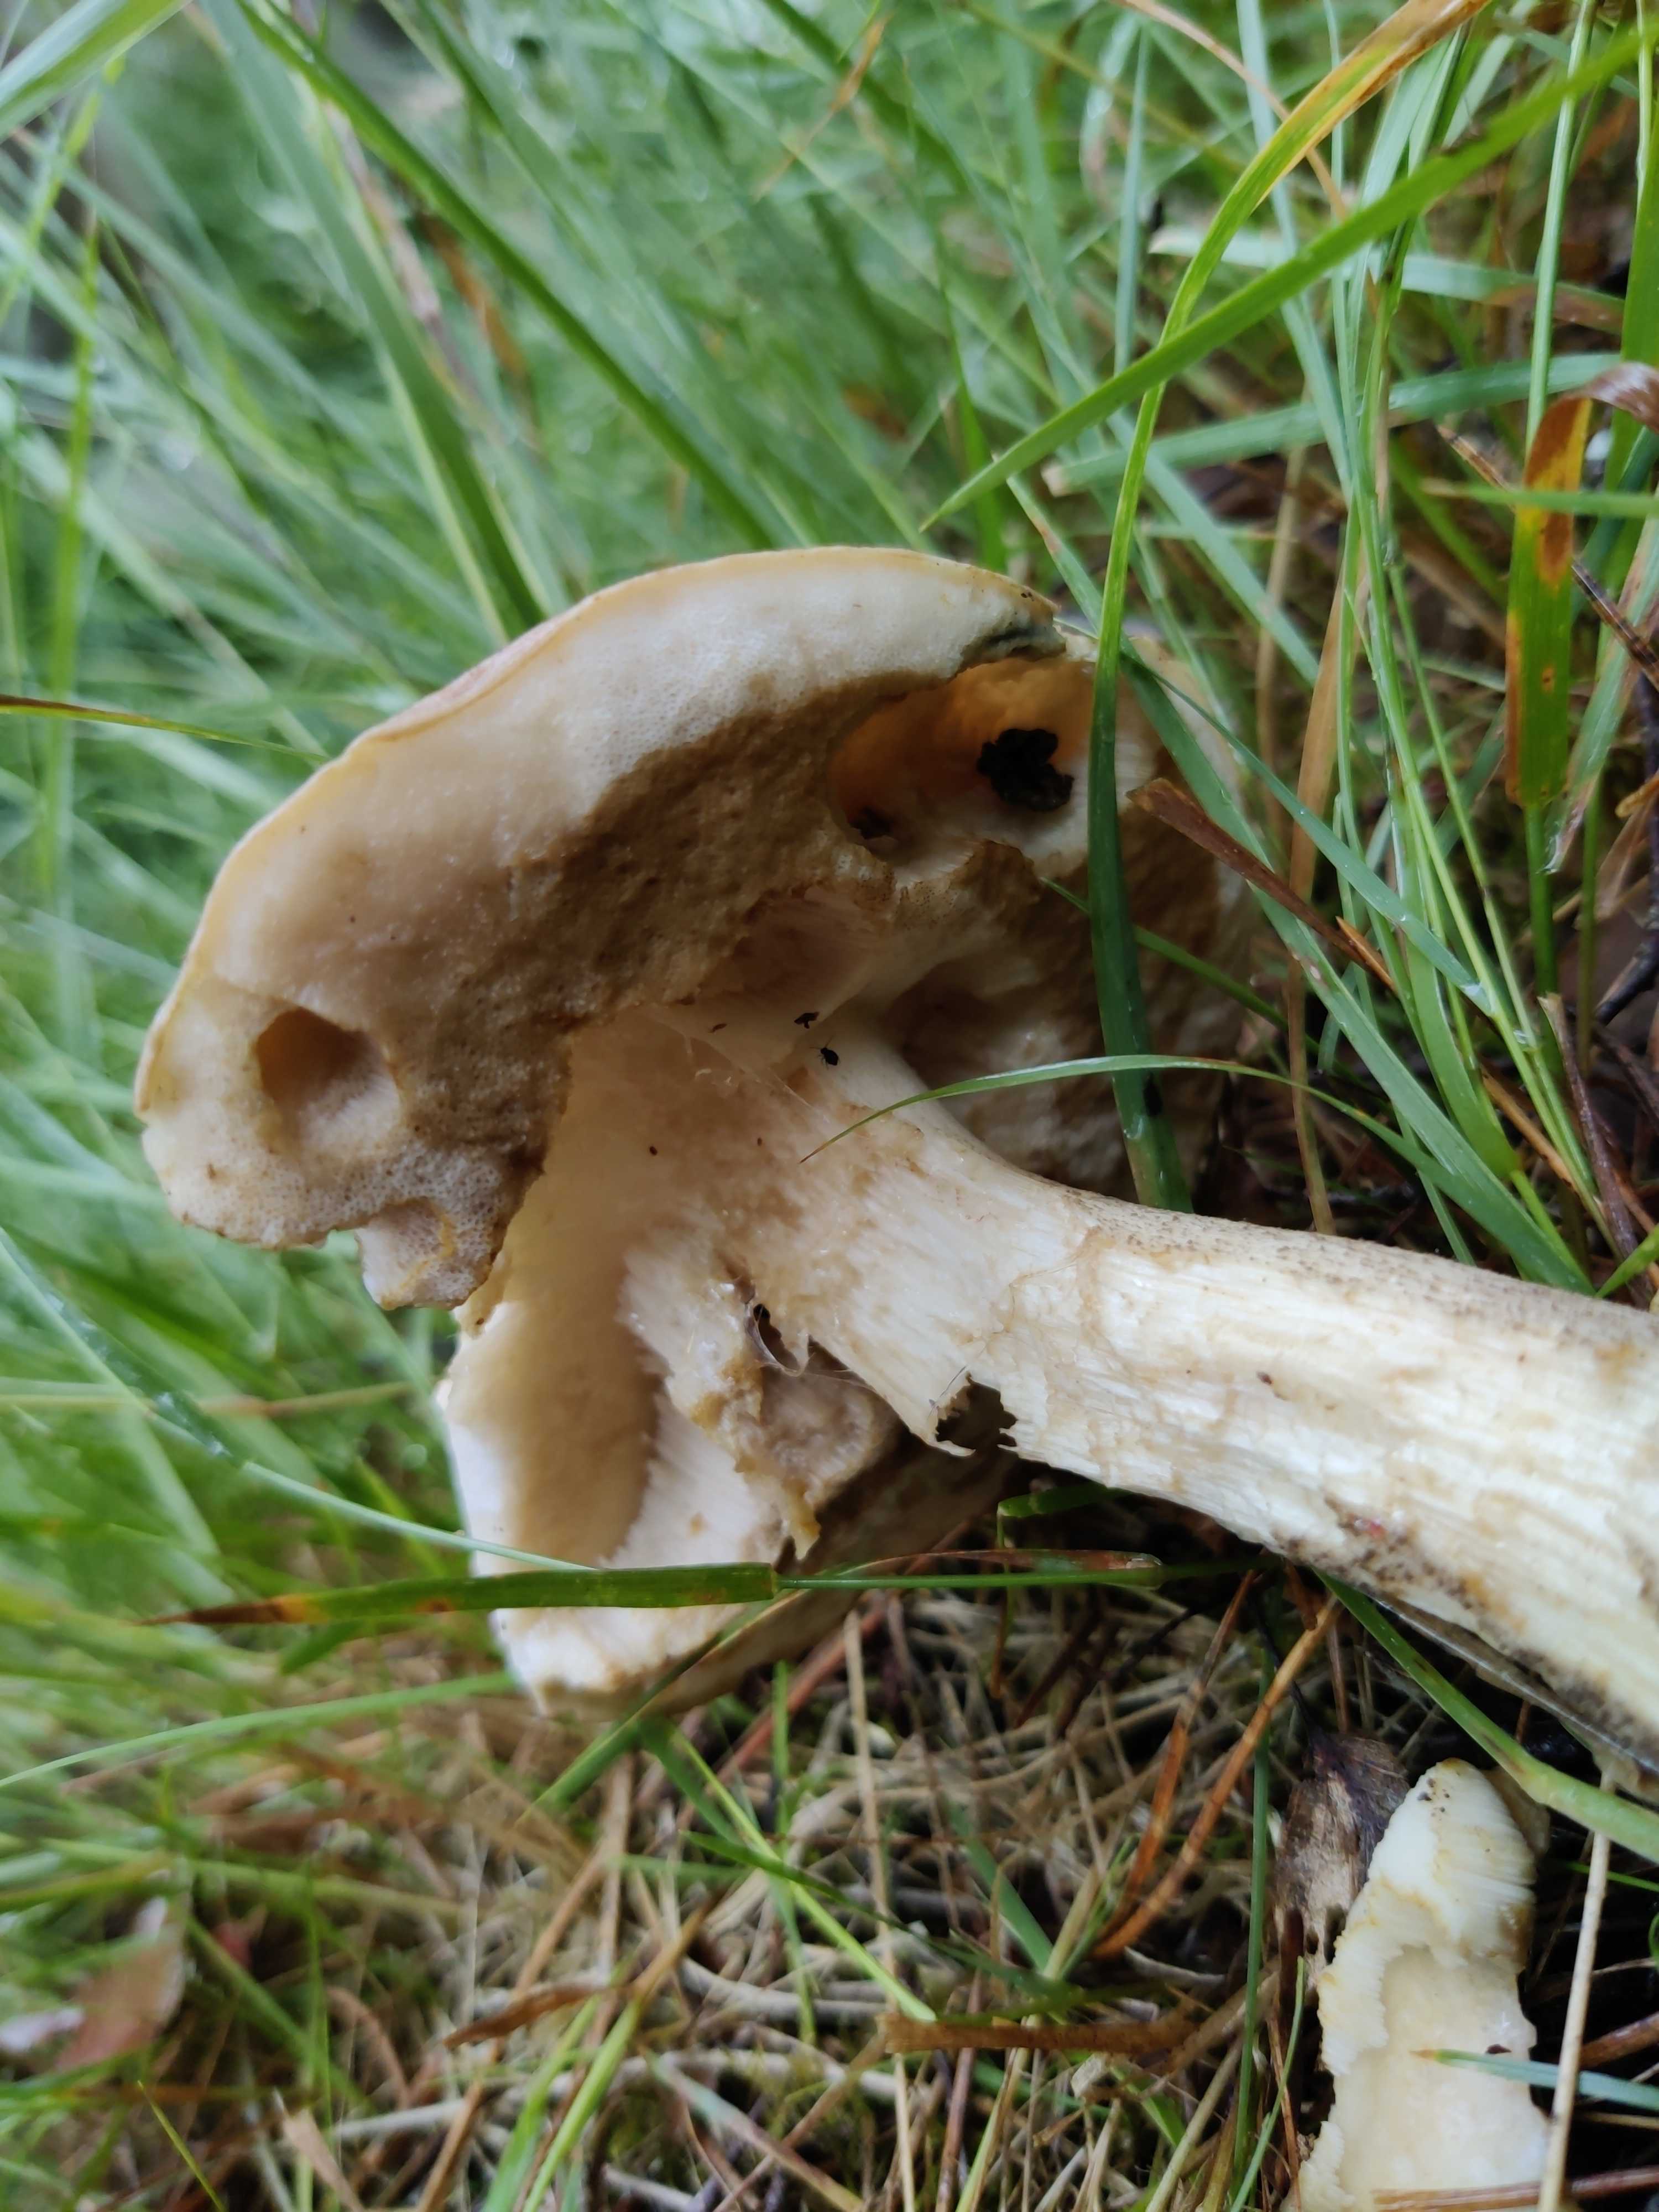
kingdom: Fungi
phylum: Basidiomycota
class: Agaricomycetes
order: Boletales
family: Boletaceae
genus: Leccinum
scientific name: Leccinum
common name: skælrørhat
